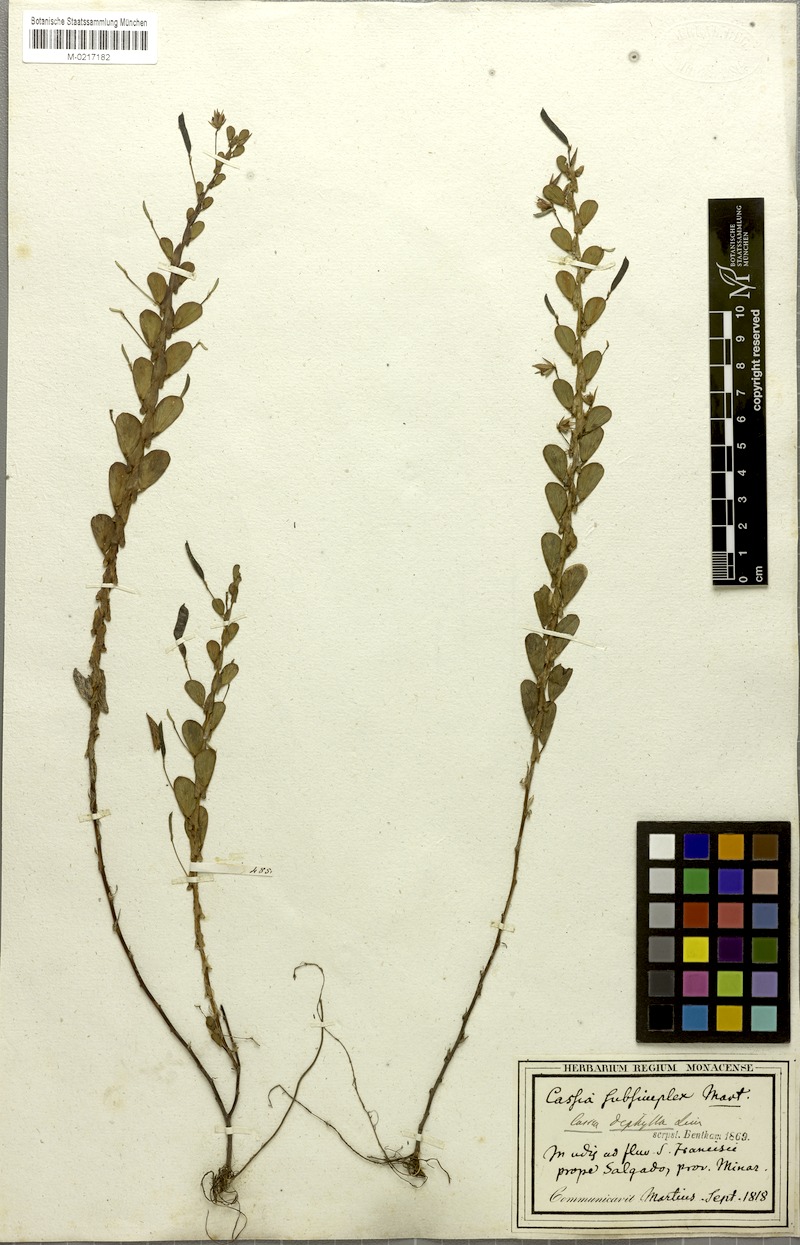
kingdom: Plantae
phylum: Tracheophyta
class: Magnoliopsida
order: Fabales
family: Fabaceae
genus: Chamaecrista
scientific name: Chamaecrista diphylla
